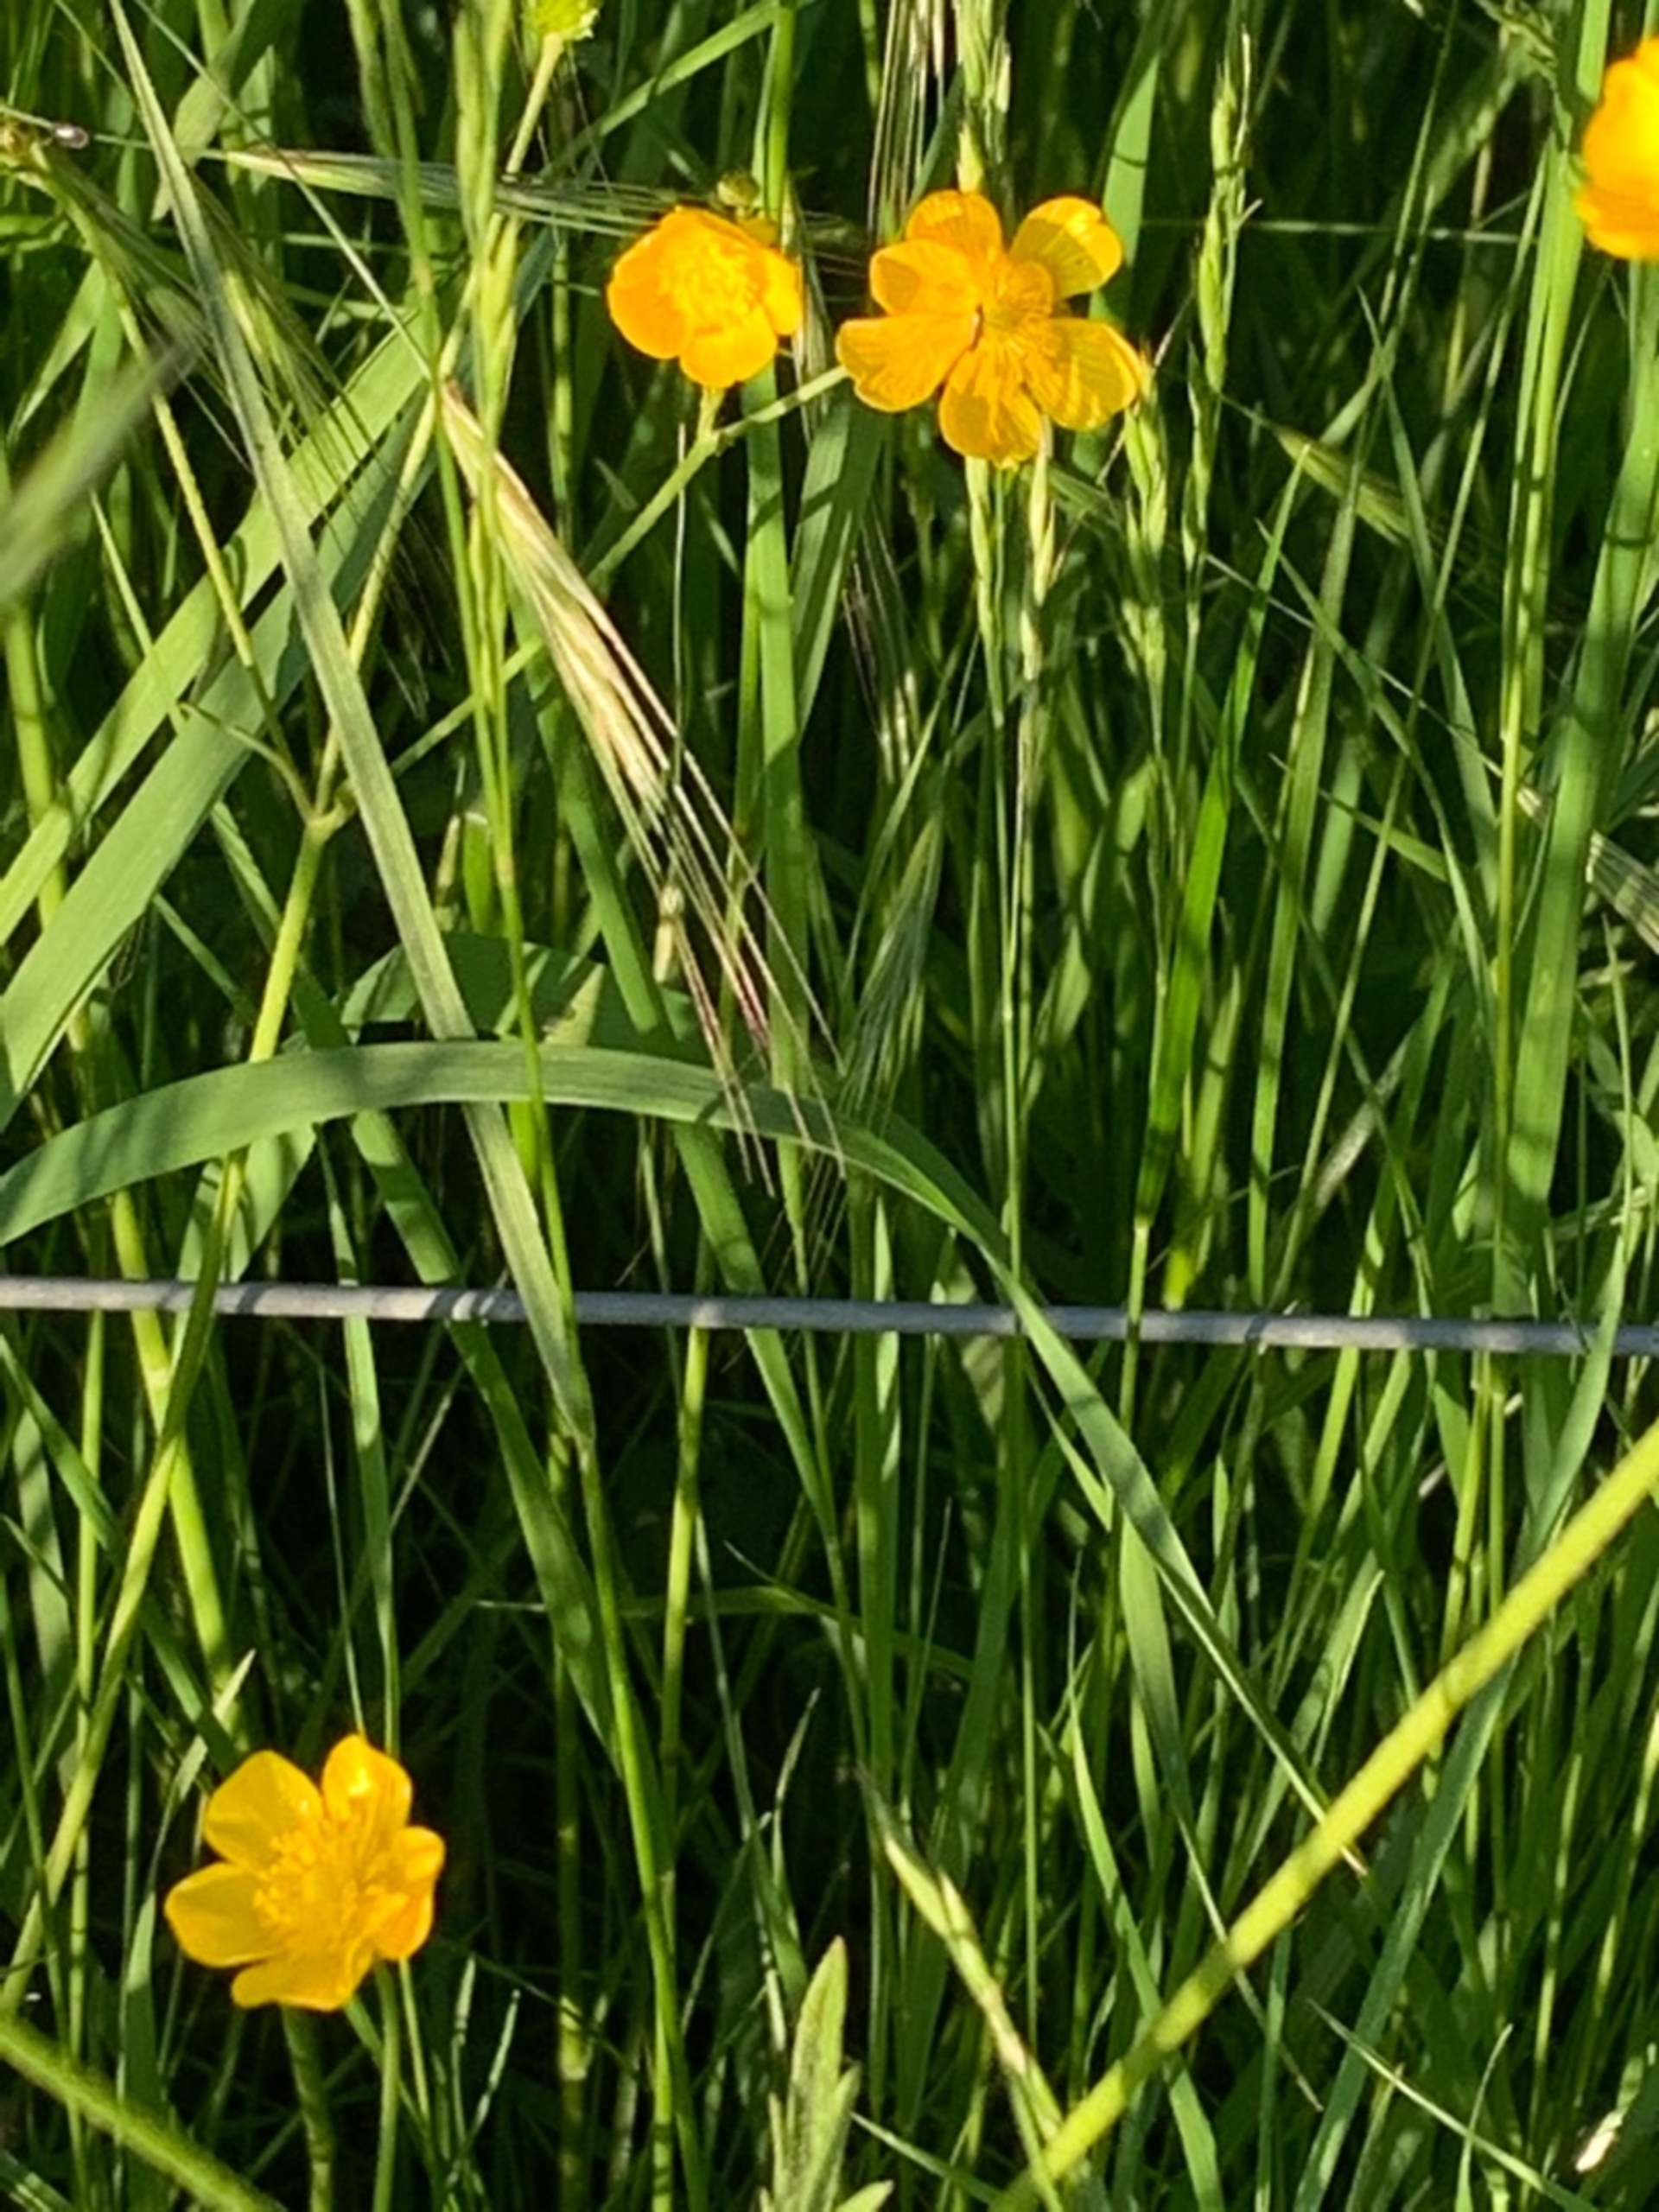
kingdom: Plantae
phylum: Tracheophyta
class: Magnoliopsida
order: Ranunculales
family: Ranunculaceae
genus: Ranunculus
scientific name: Ranunculus acris
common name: Bidende ranunkel
